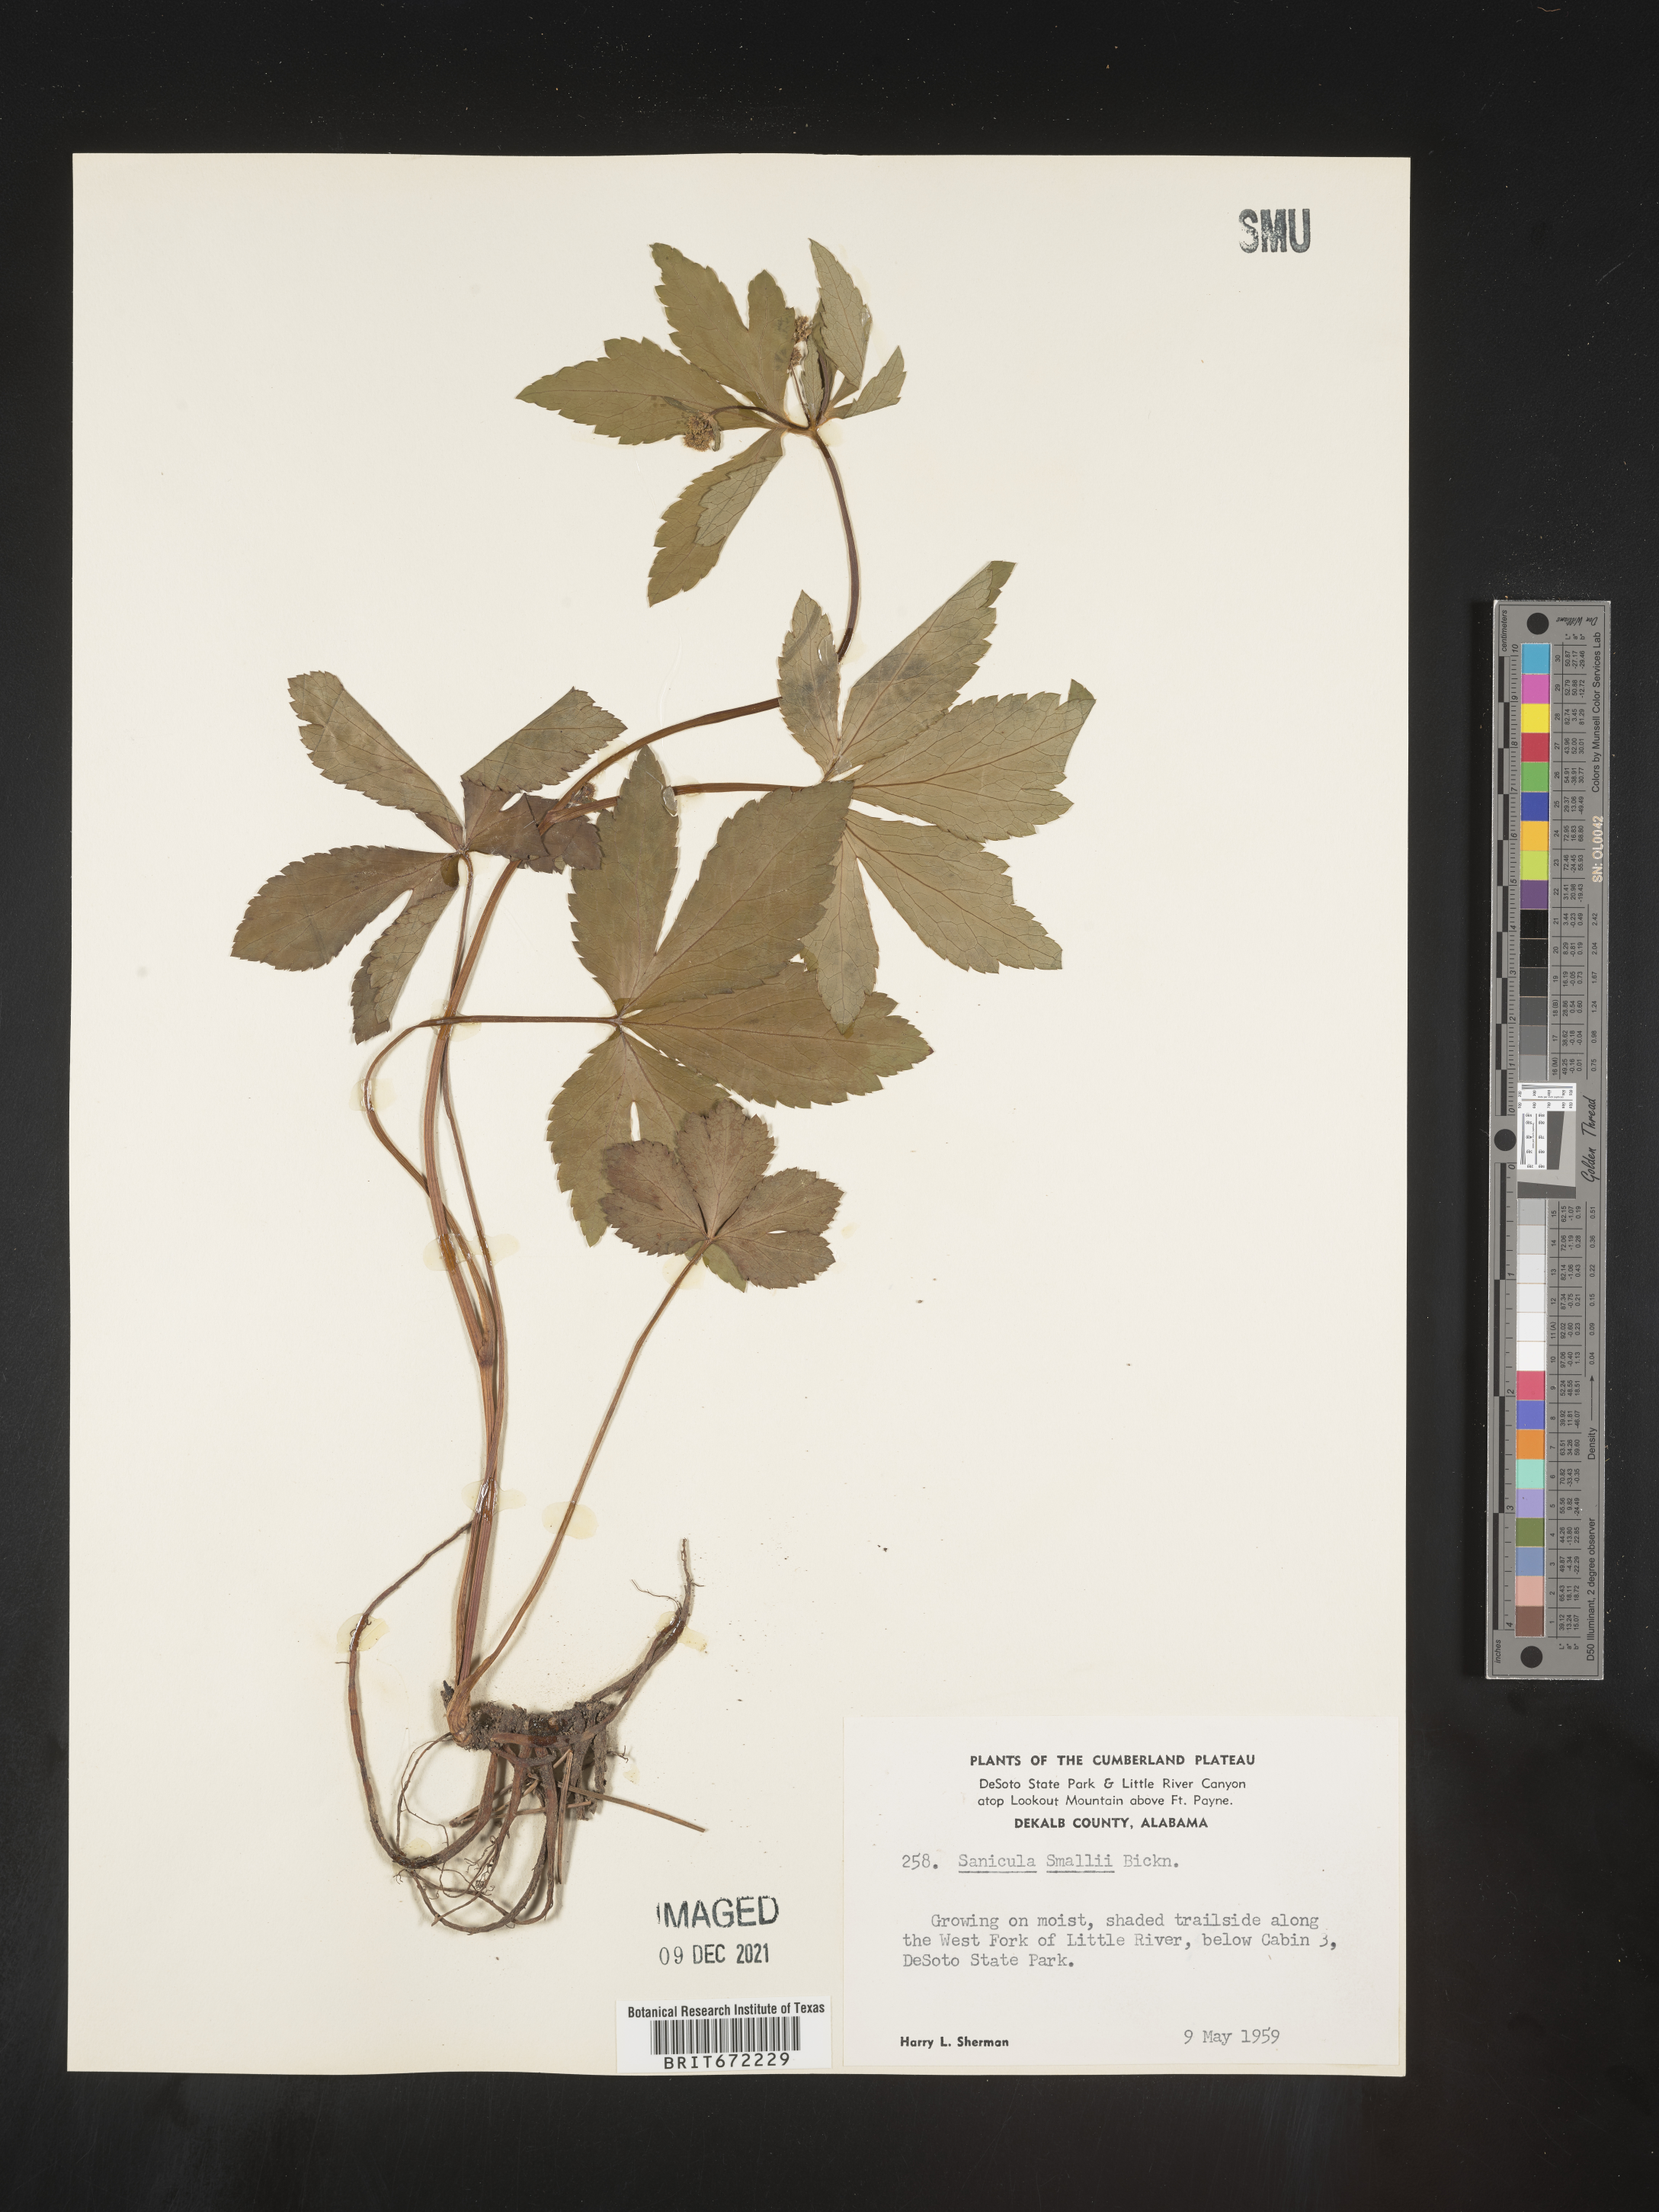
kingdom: Plantae
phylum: Tracheophyta
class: Magnoliopsida
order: Apiales
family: Apiaceae
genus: Sanicula
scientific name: Sanicula
